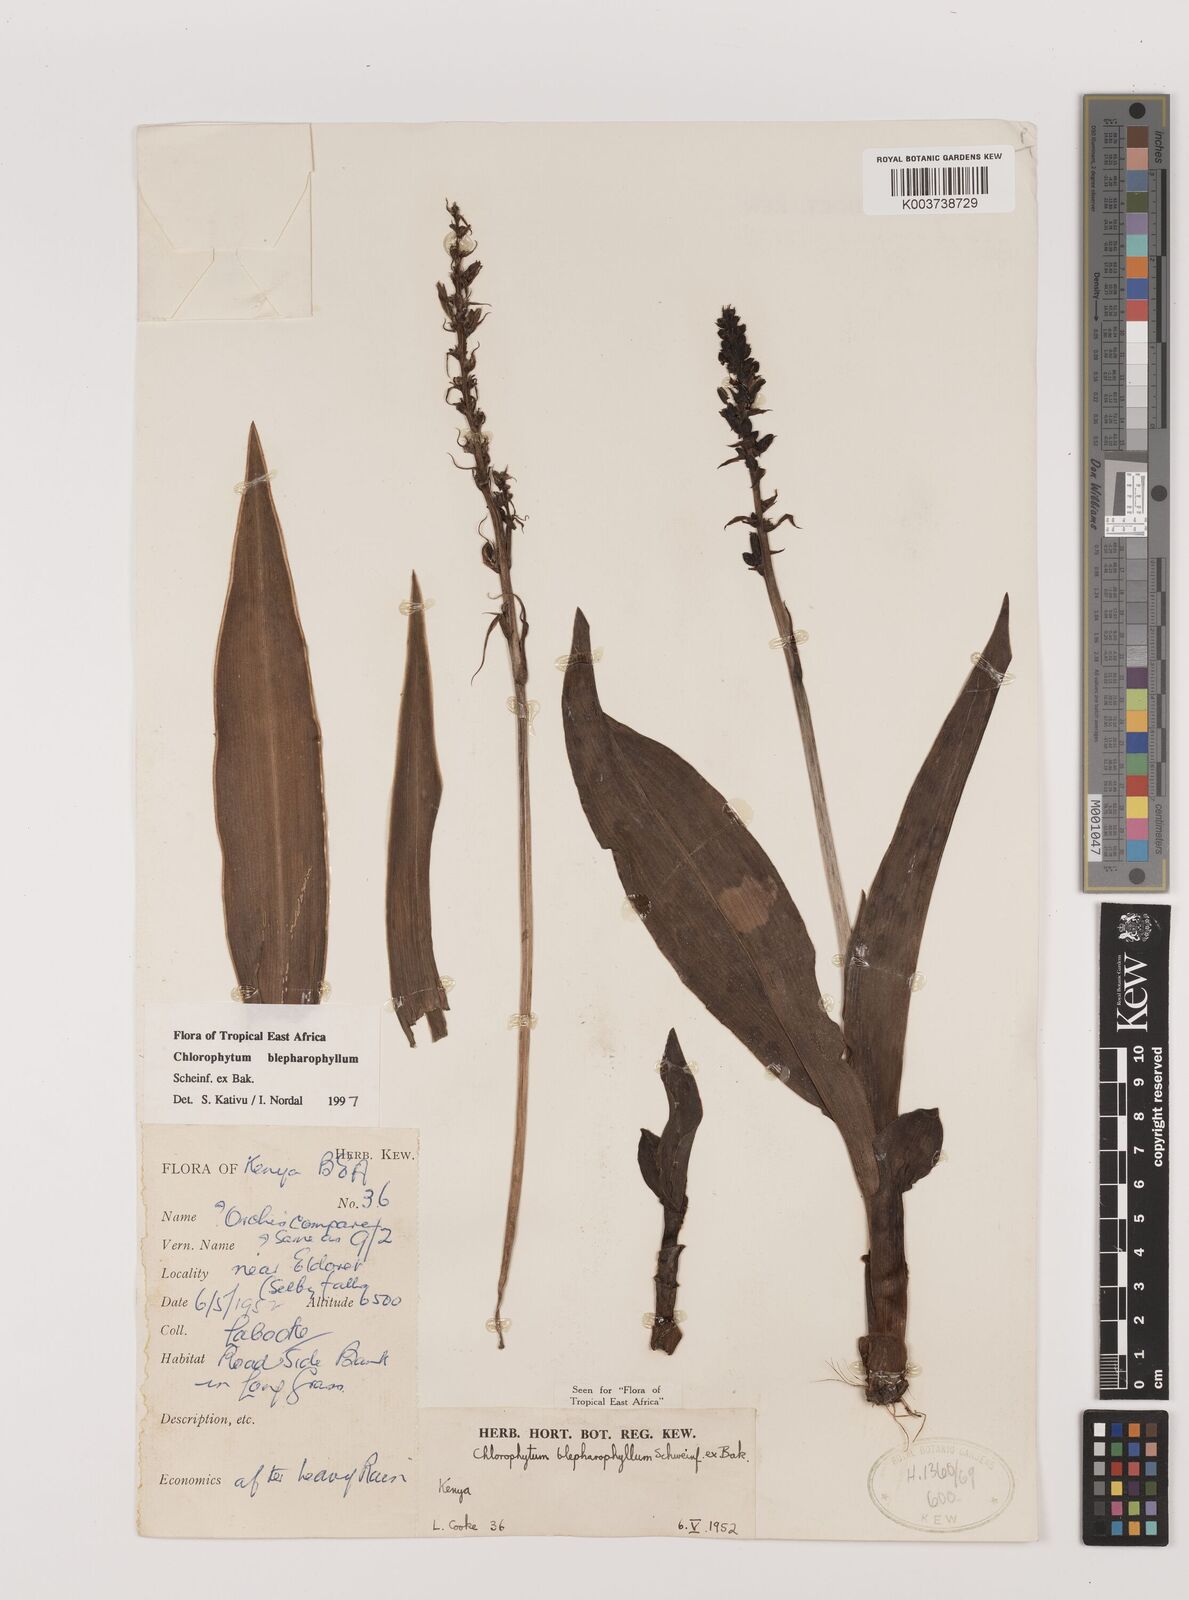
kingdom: Plantae
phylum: Tracheophyta
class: Liliopsida
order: Asparagales
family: Asparagaceae
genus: Chlorophytum
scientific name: Chlorophytum blepharophyllum
